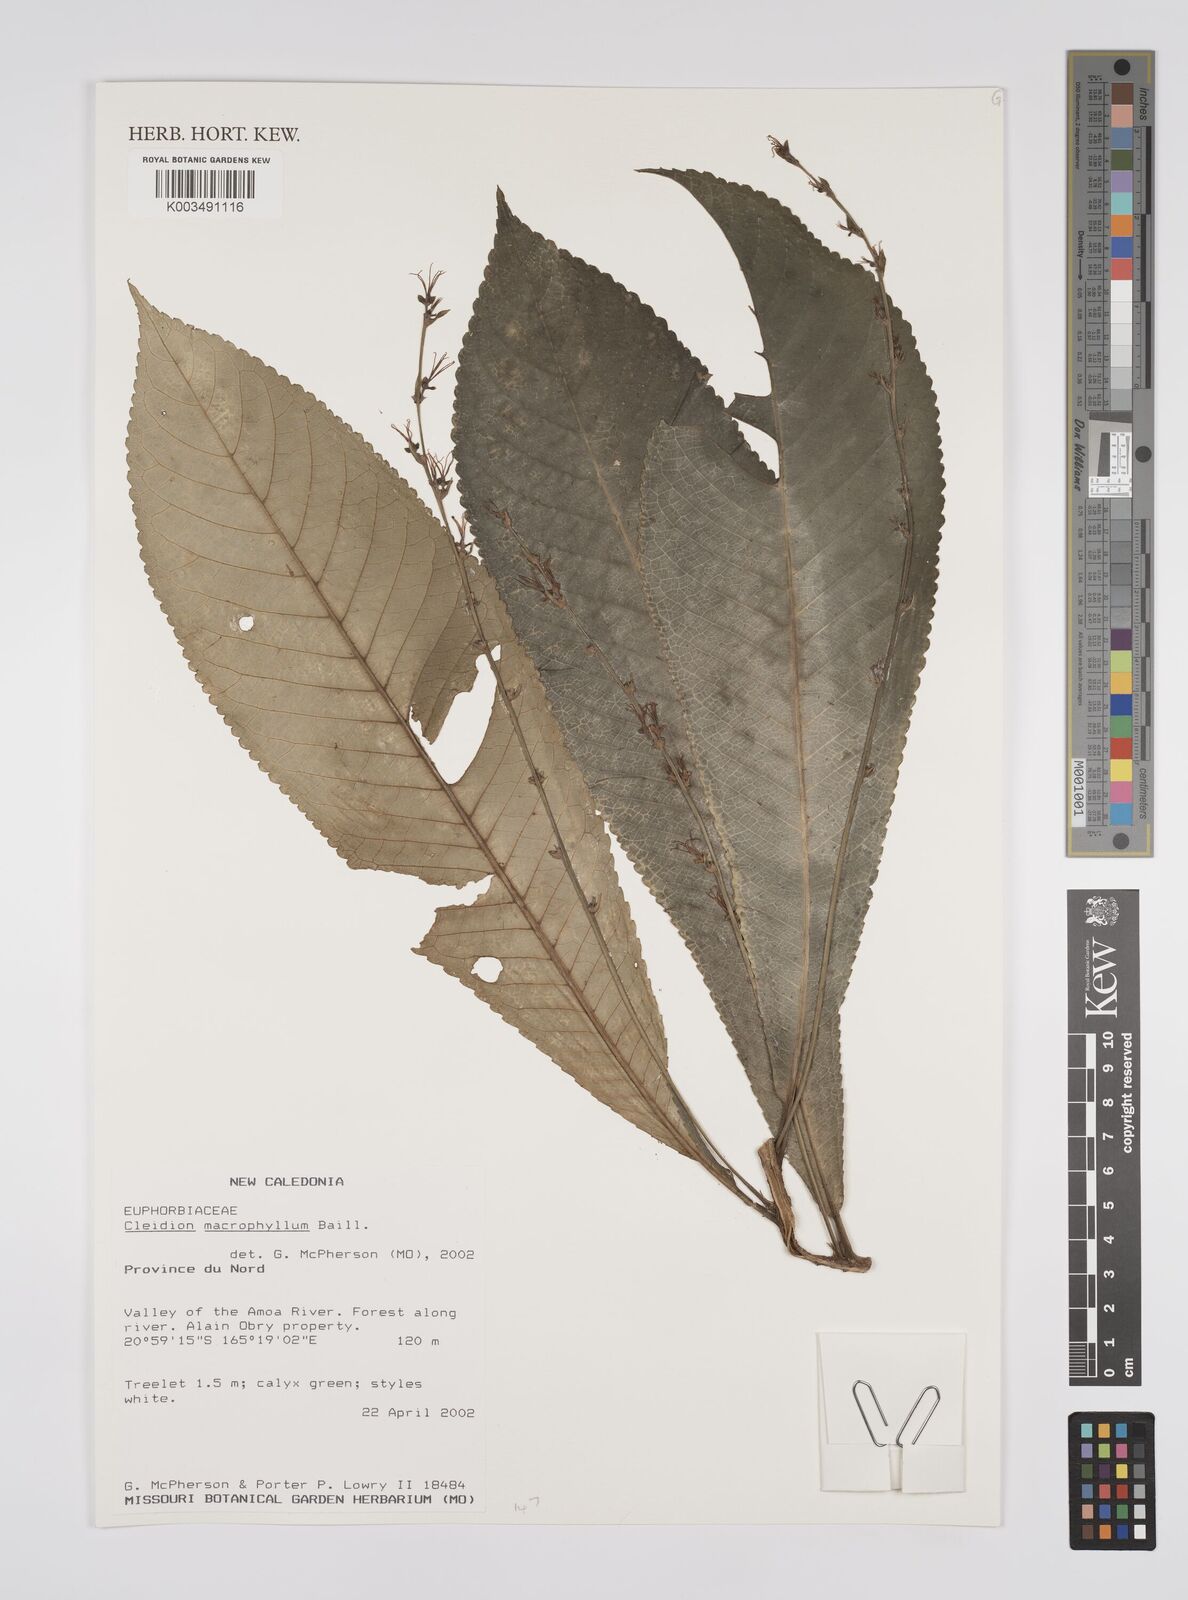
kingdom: Plantae
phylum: Tracheophyta
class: Magnoliopsida
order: Malpighiales
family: Euphorbiaceae
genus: Cleidion
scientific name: Cleidion macrophyllum
